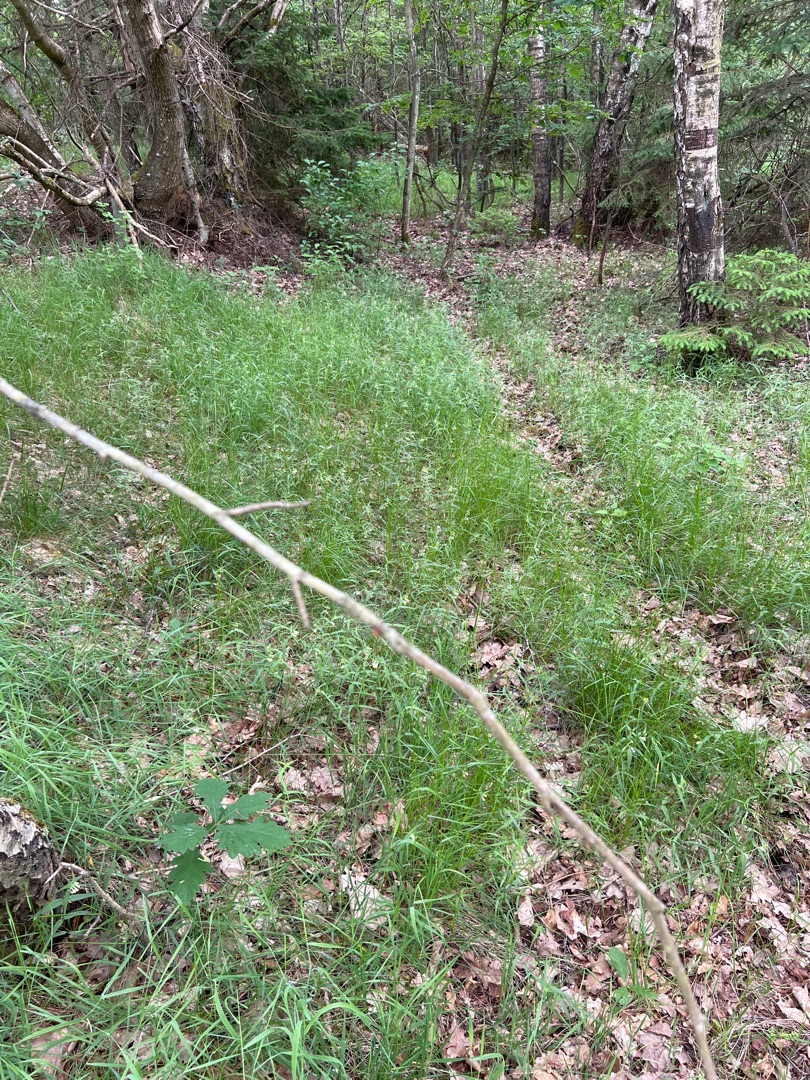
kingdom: Plantae
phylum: Tracheophyta
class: Magnoliopsida
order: Lamiales
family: Orobanchaceae
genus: Melampyrum
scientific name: Melampyrum pratense
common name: Almindelig kohvede
